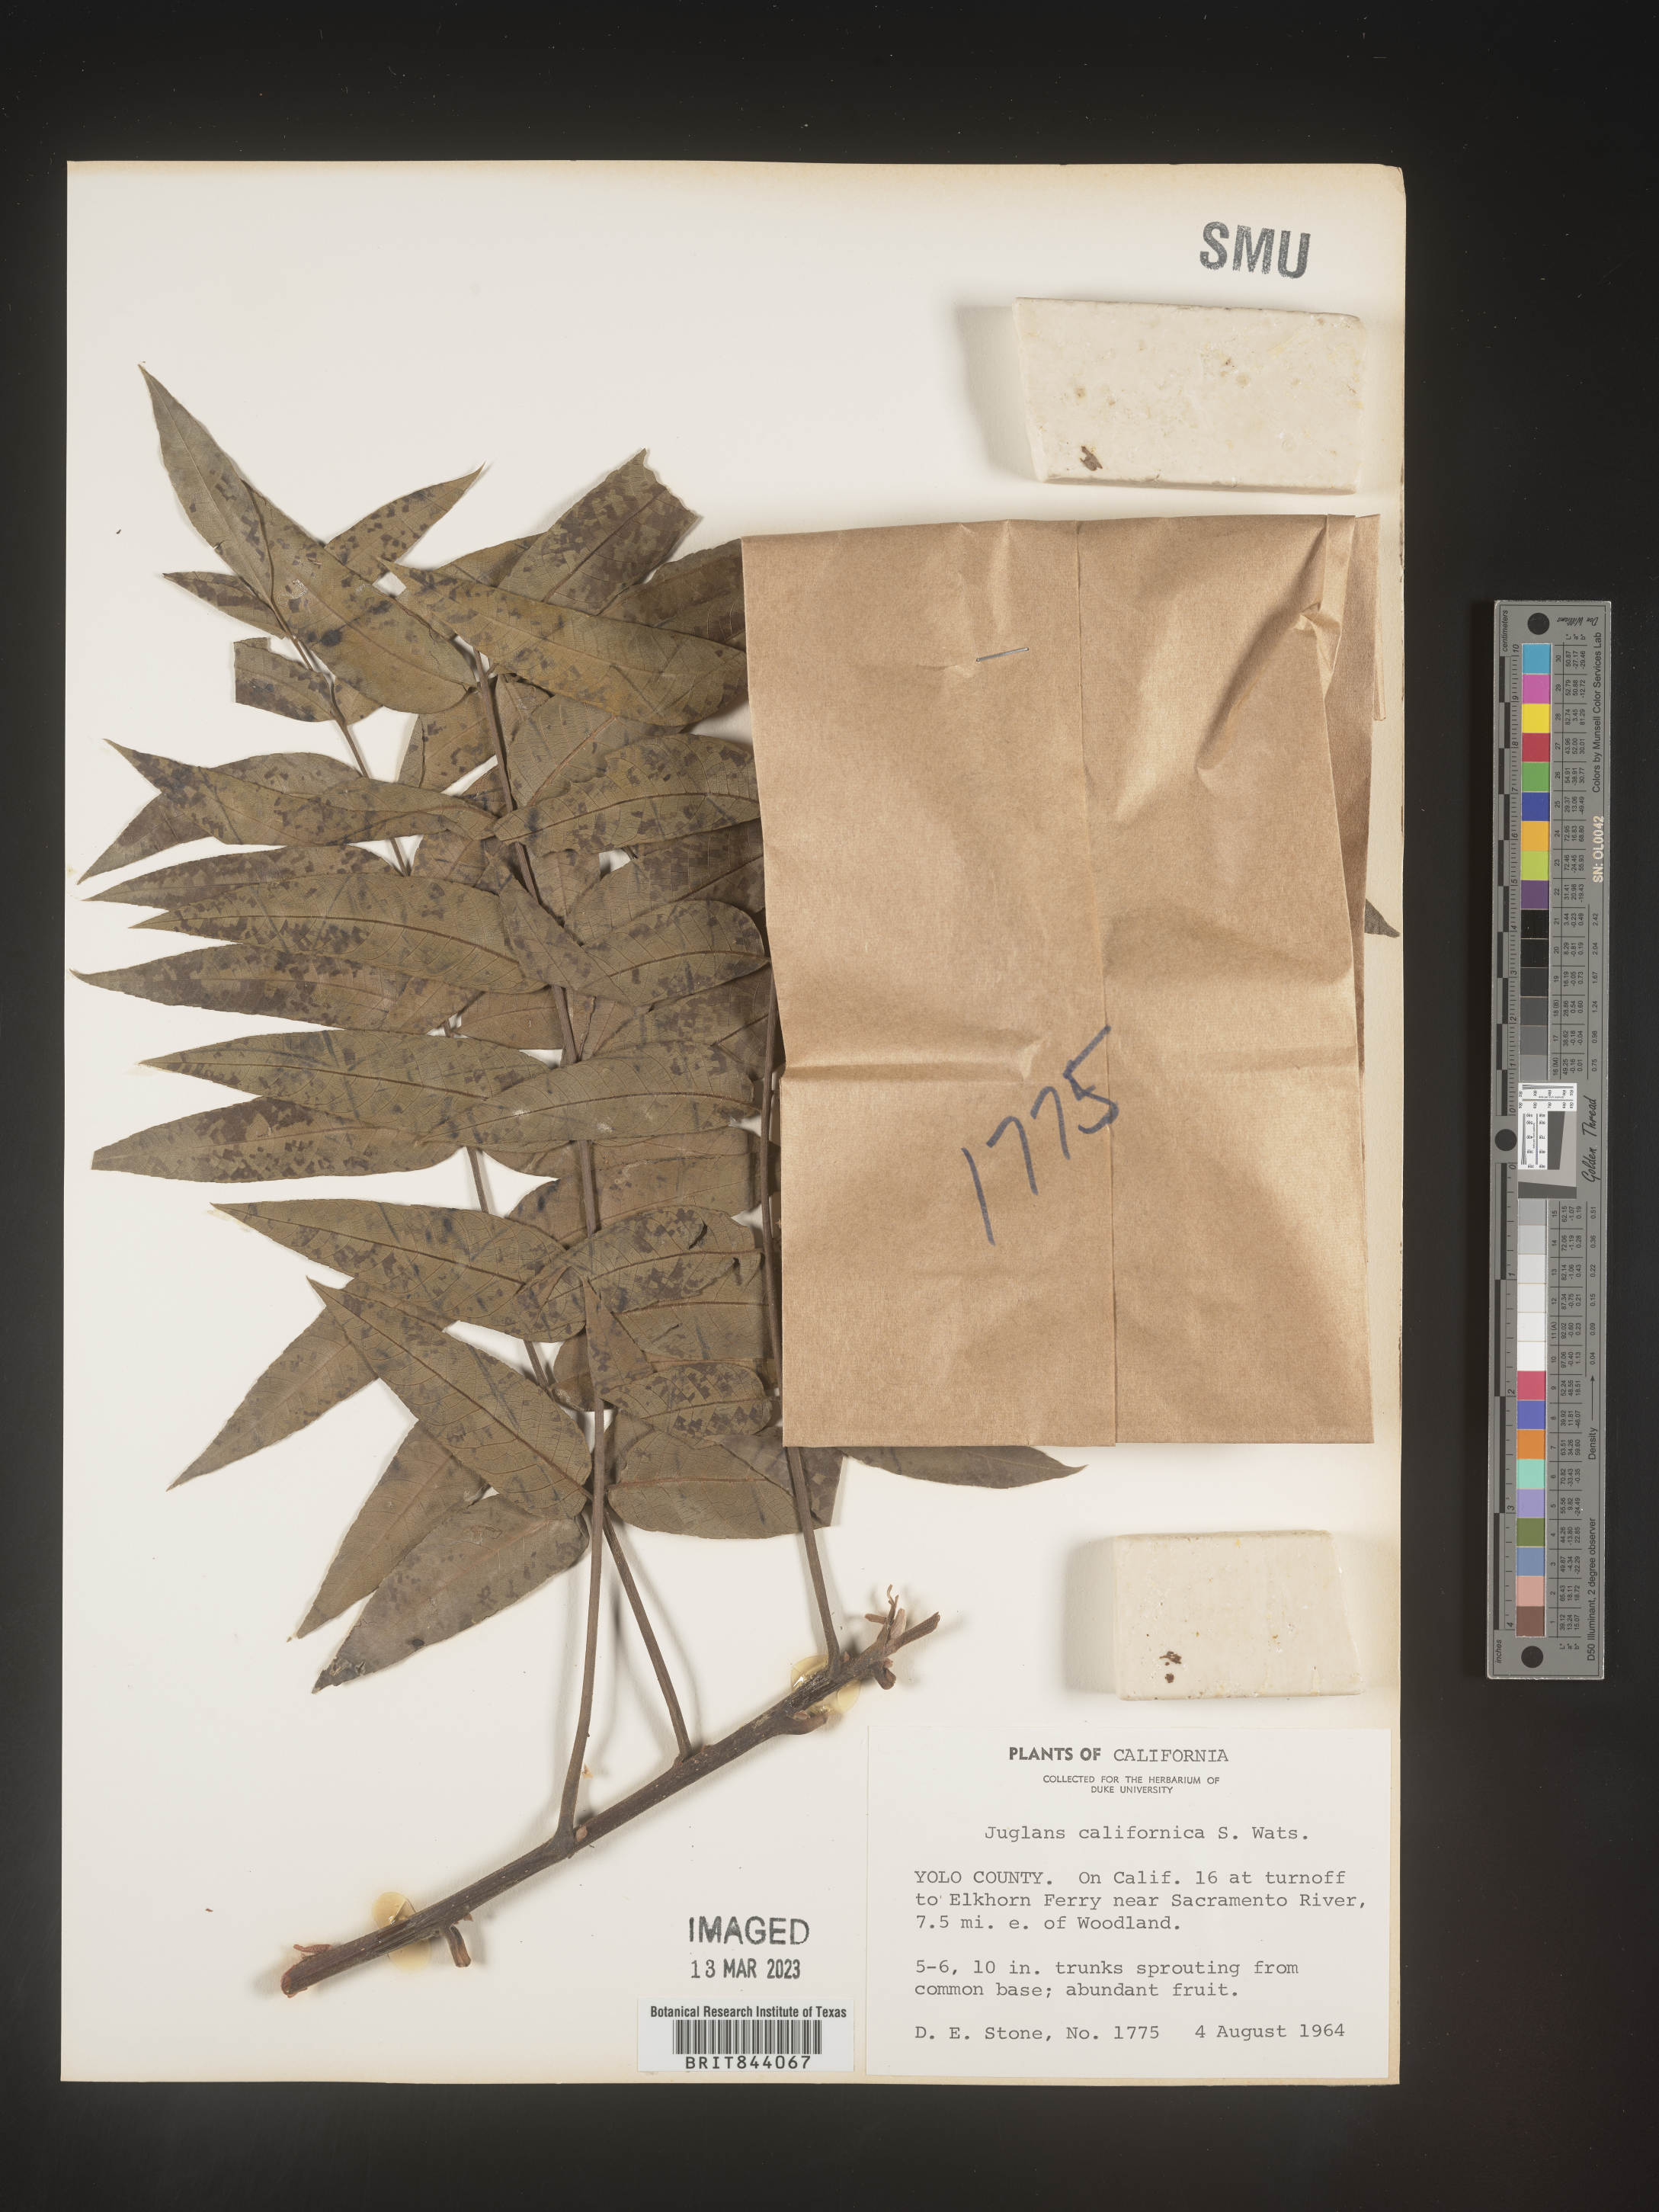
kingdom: Plantae
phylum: Tracheophyta
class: Magnoliopsida
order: Fagales
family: Juglandaceae
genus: Juglans
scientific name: Juglans californica
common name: Southern california black walnut
